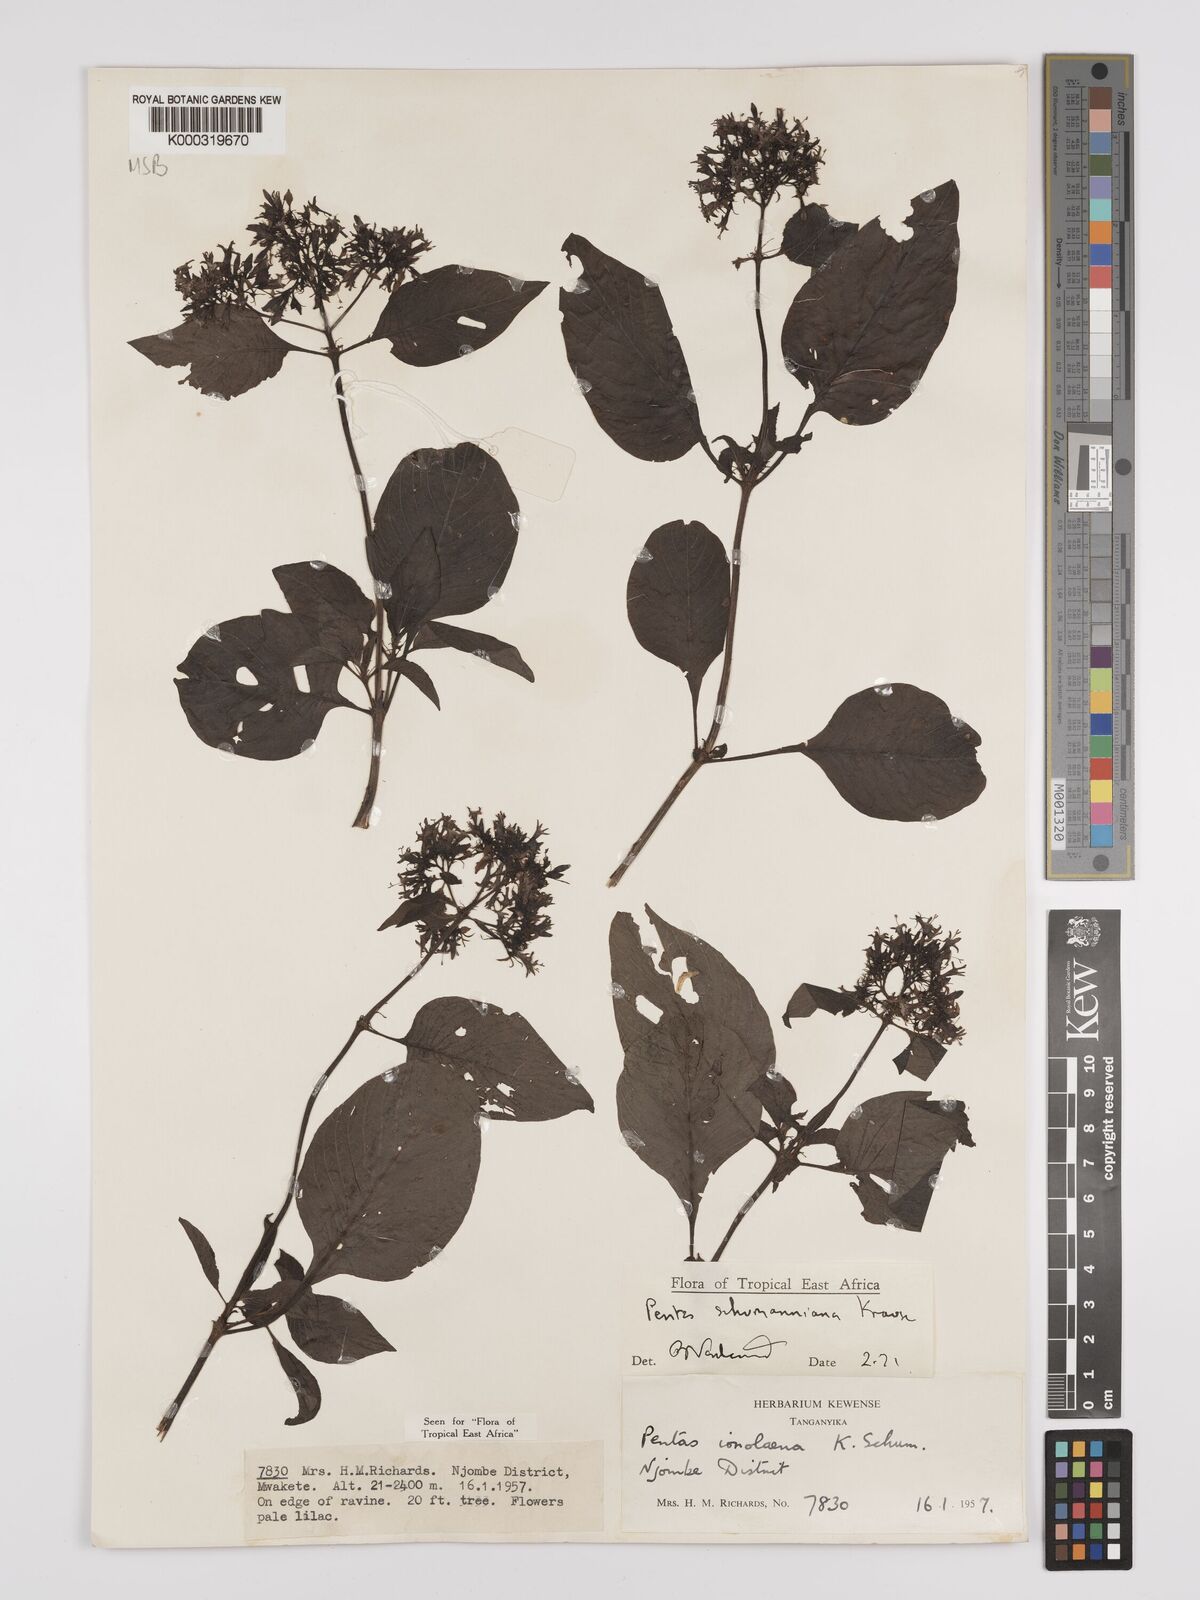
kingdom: Plantae
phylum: Tracheophyta
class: Magnoliopsida
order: Gentianales
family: Rubiaceae
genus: Phyllopentas
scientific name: Phyllopentas schumanniana
